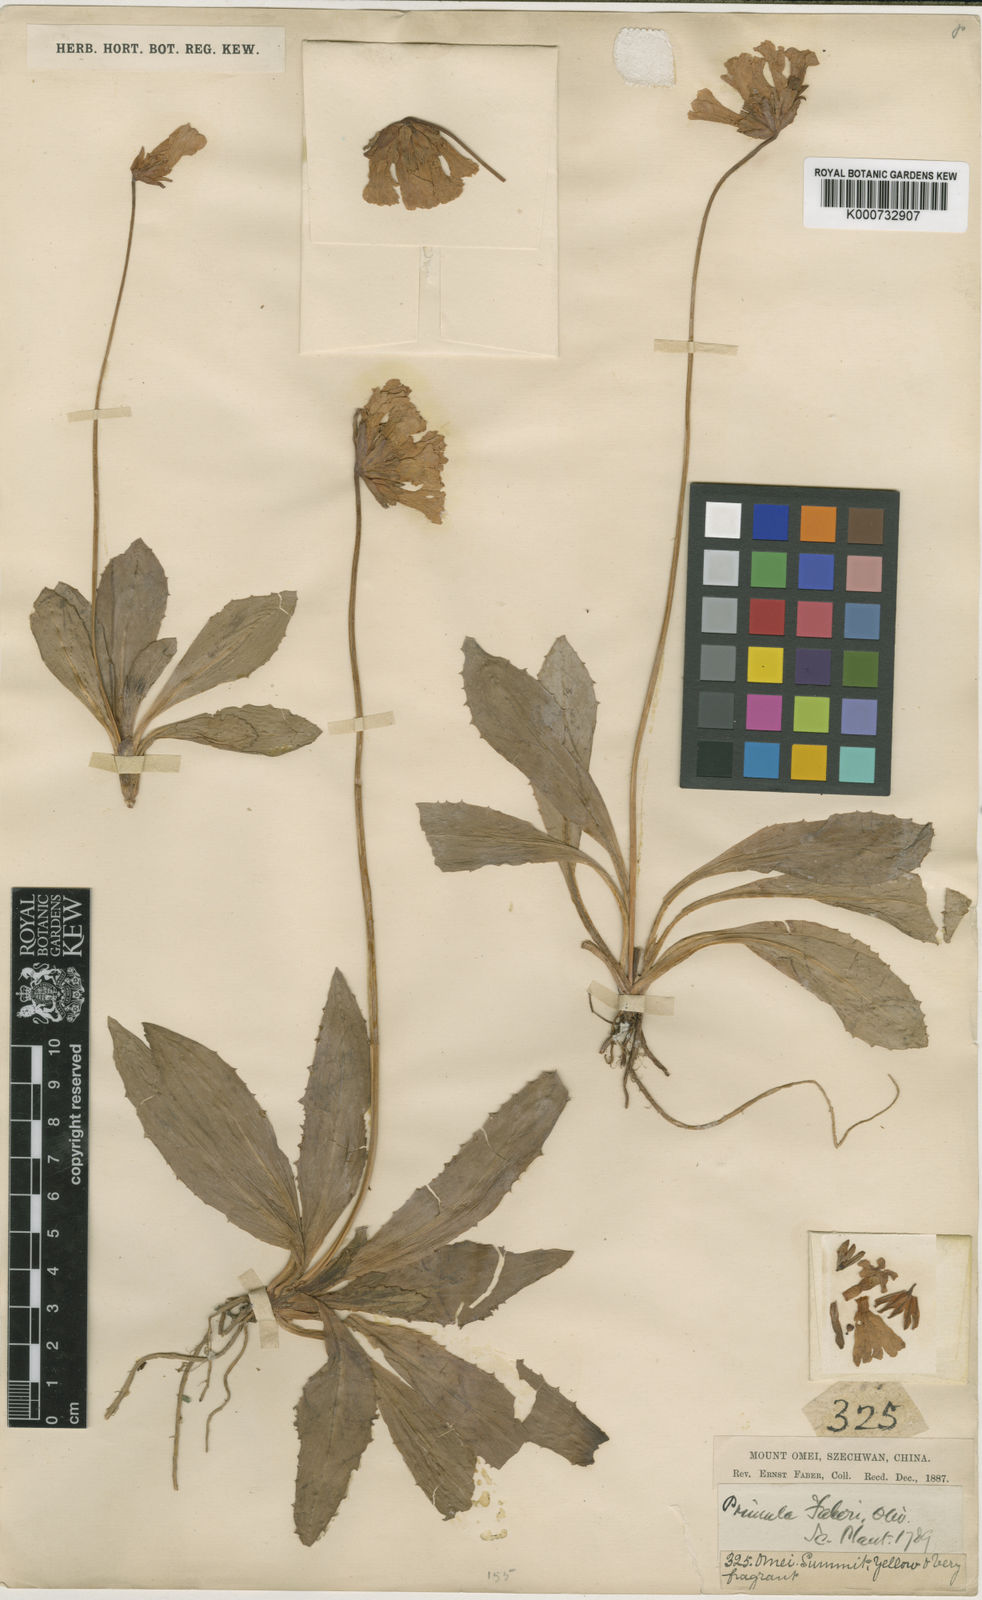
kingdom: Plantae
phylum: Tracheophyta
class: Magnoliopsida
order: Ericales
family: Primulaceae
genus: Primula
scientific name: Primula faberi
